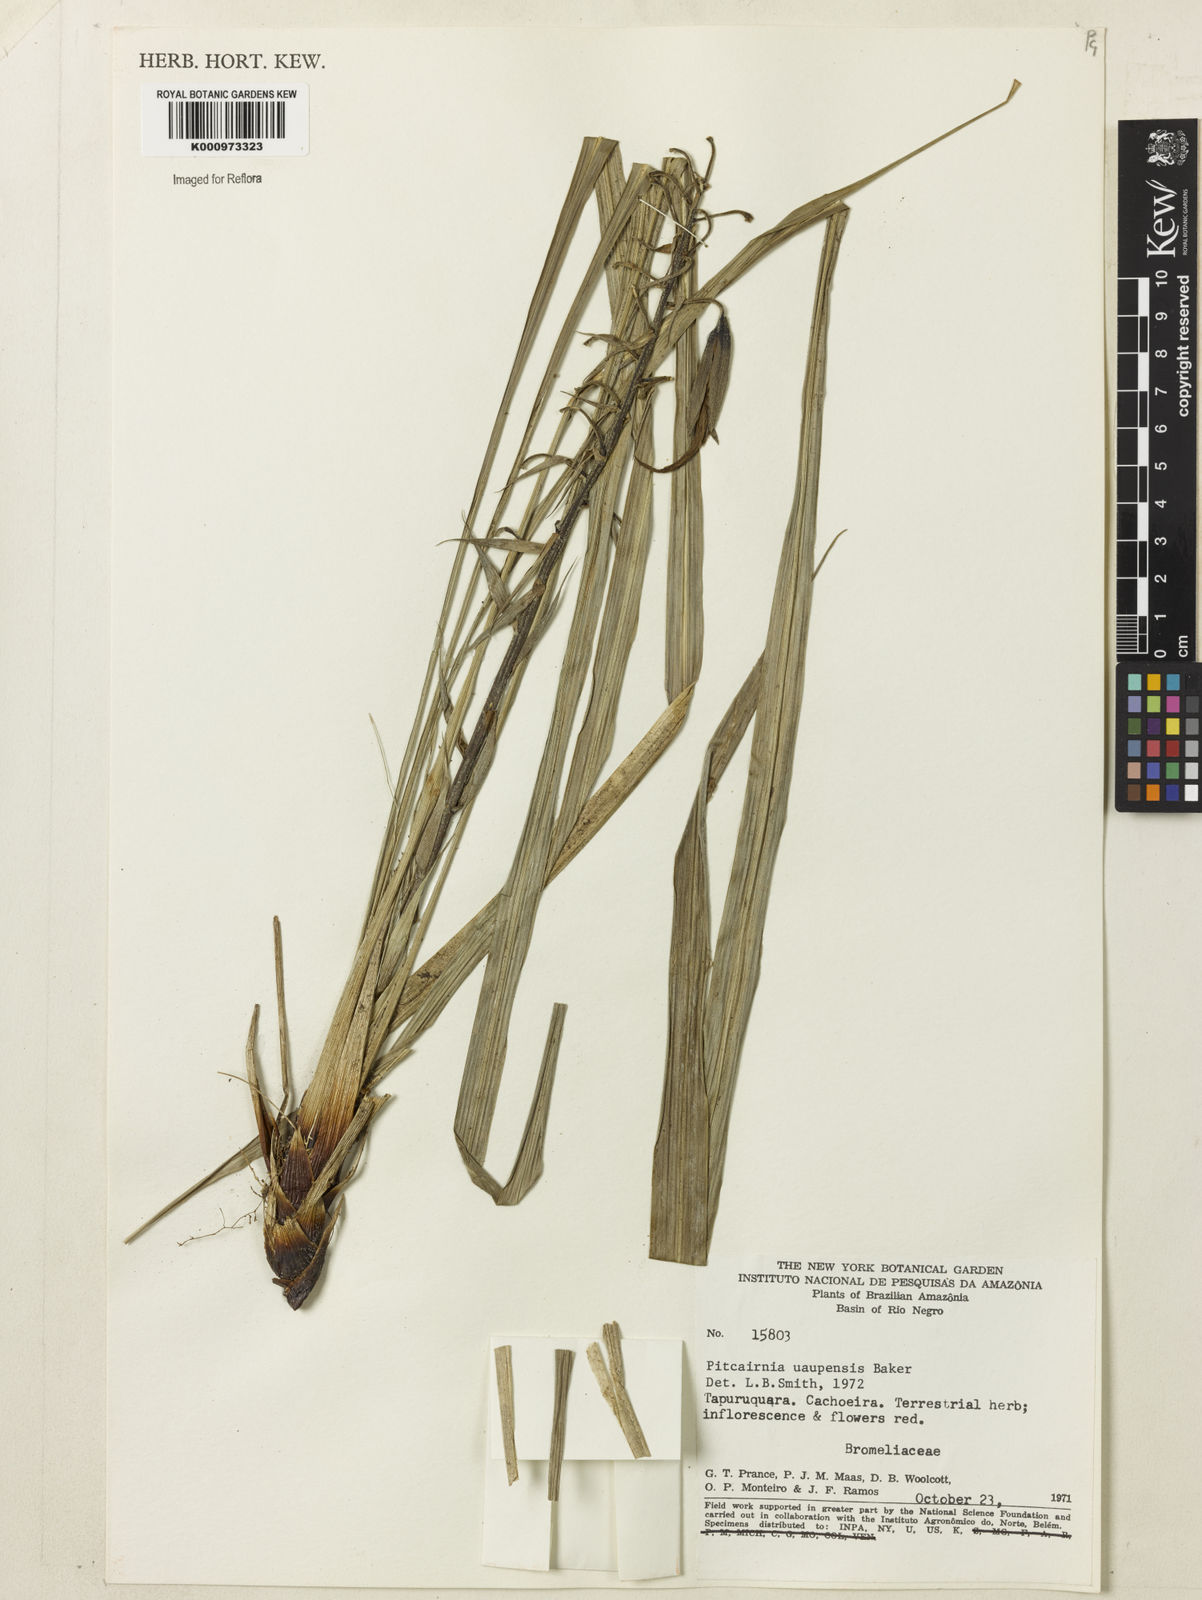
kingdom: Plantae
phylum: Tracheophyta
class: Liliopsida
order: Poales
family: Bromeliaceae
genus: Pitcairnia
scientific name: Pitcairnia uaupensis
